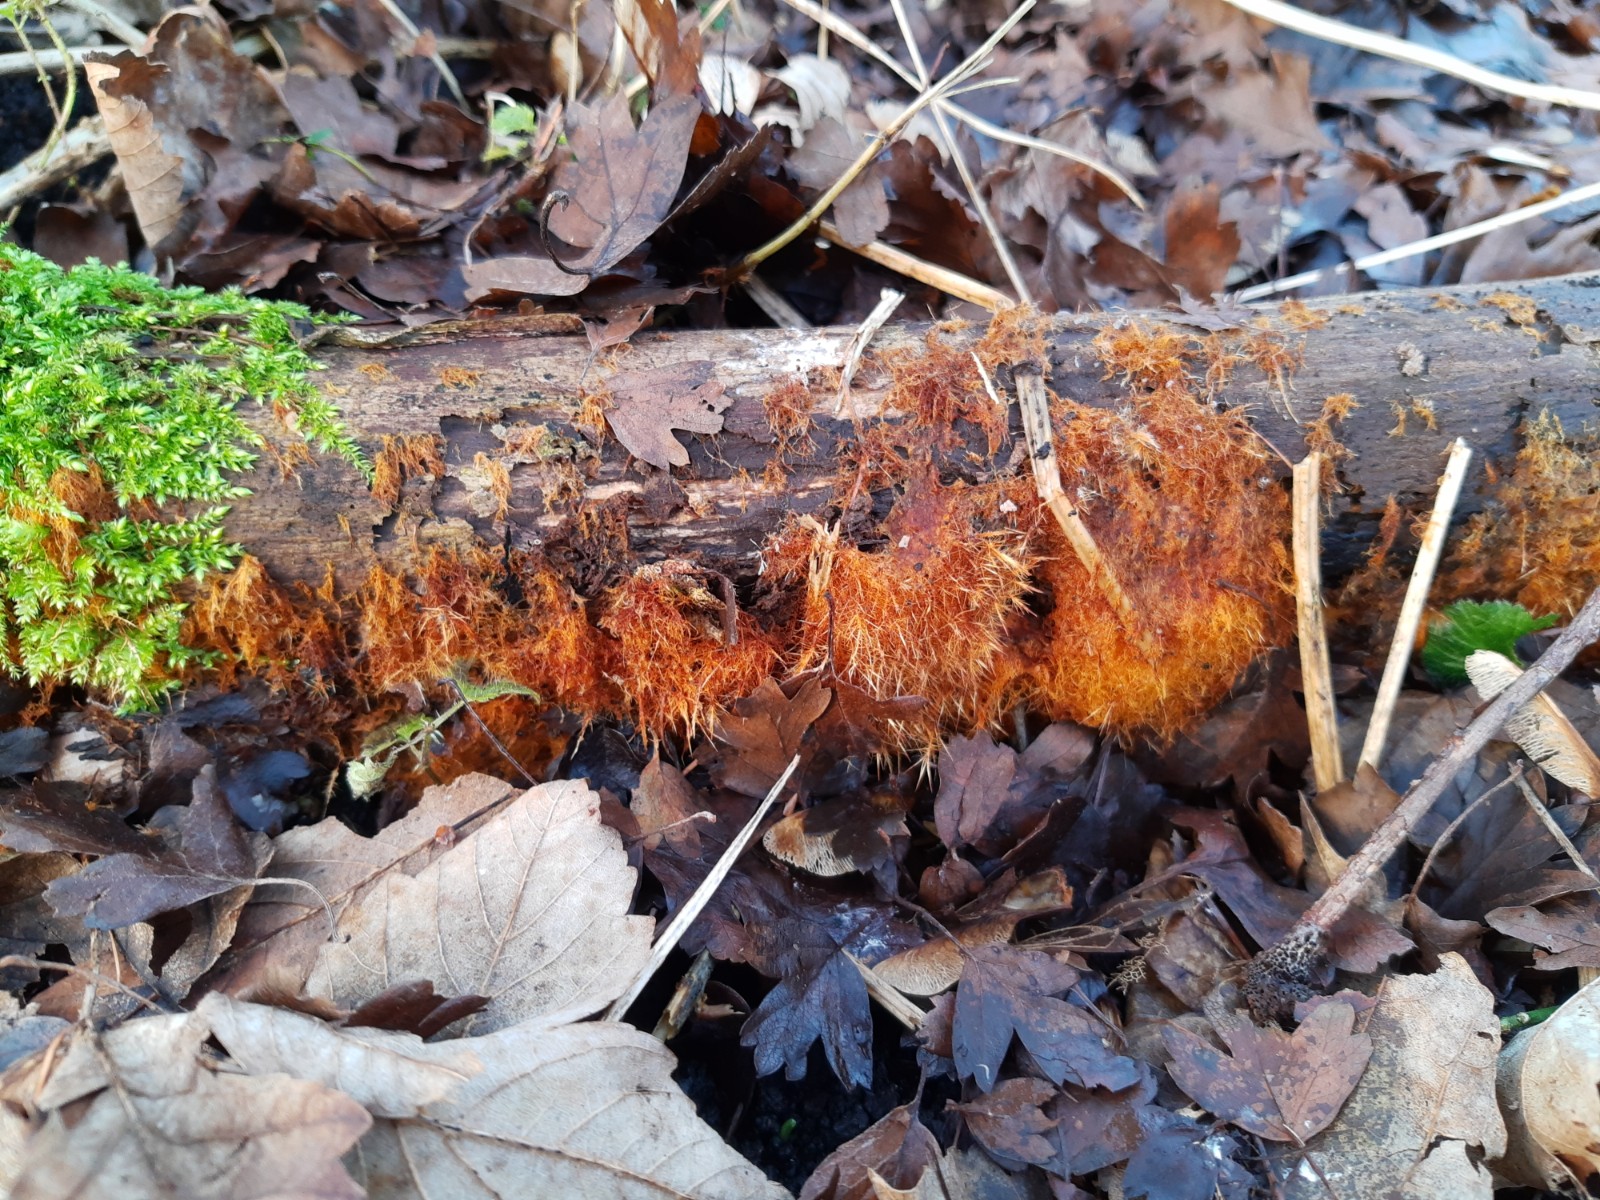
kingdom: Fungi
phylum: Basidiomycota
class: Agaricomycetes
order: Agaricales
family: Psathyrellaceae
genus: Ozonium
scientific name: Ozonium
